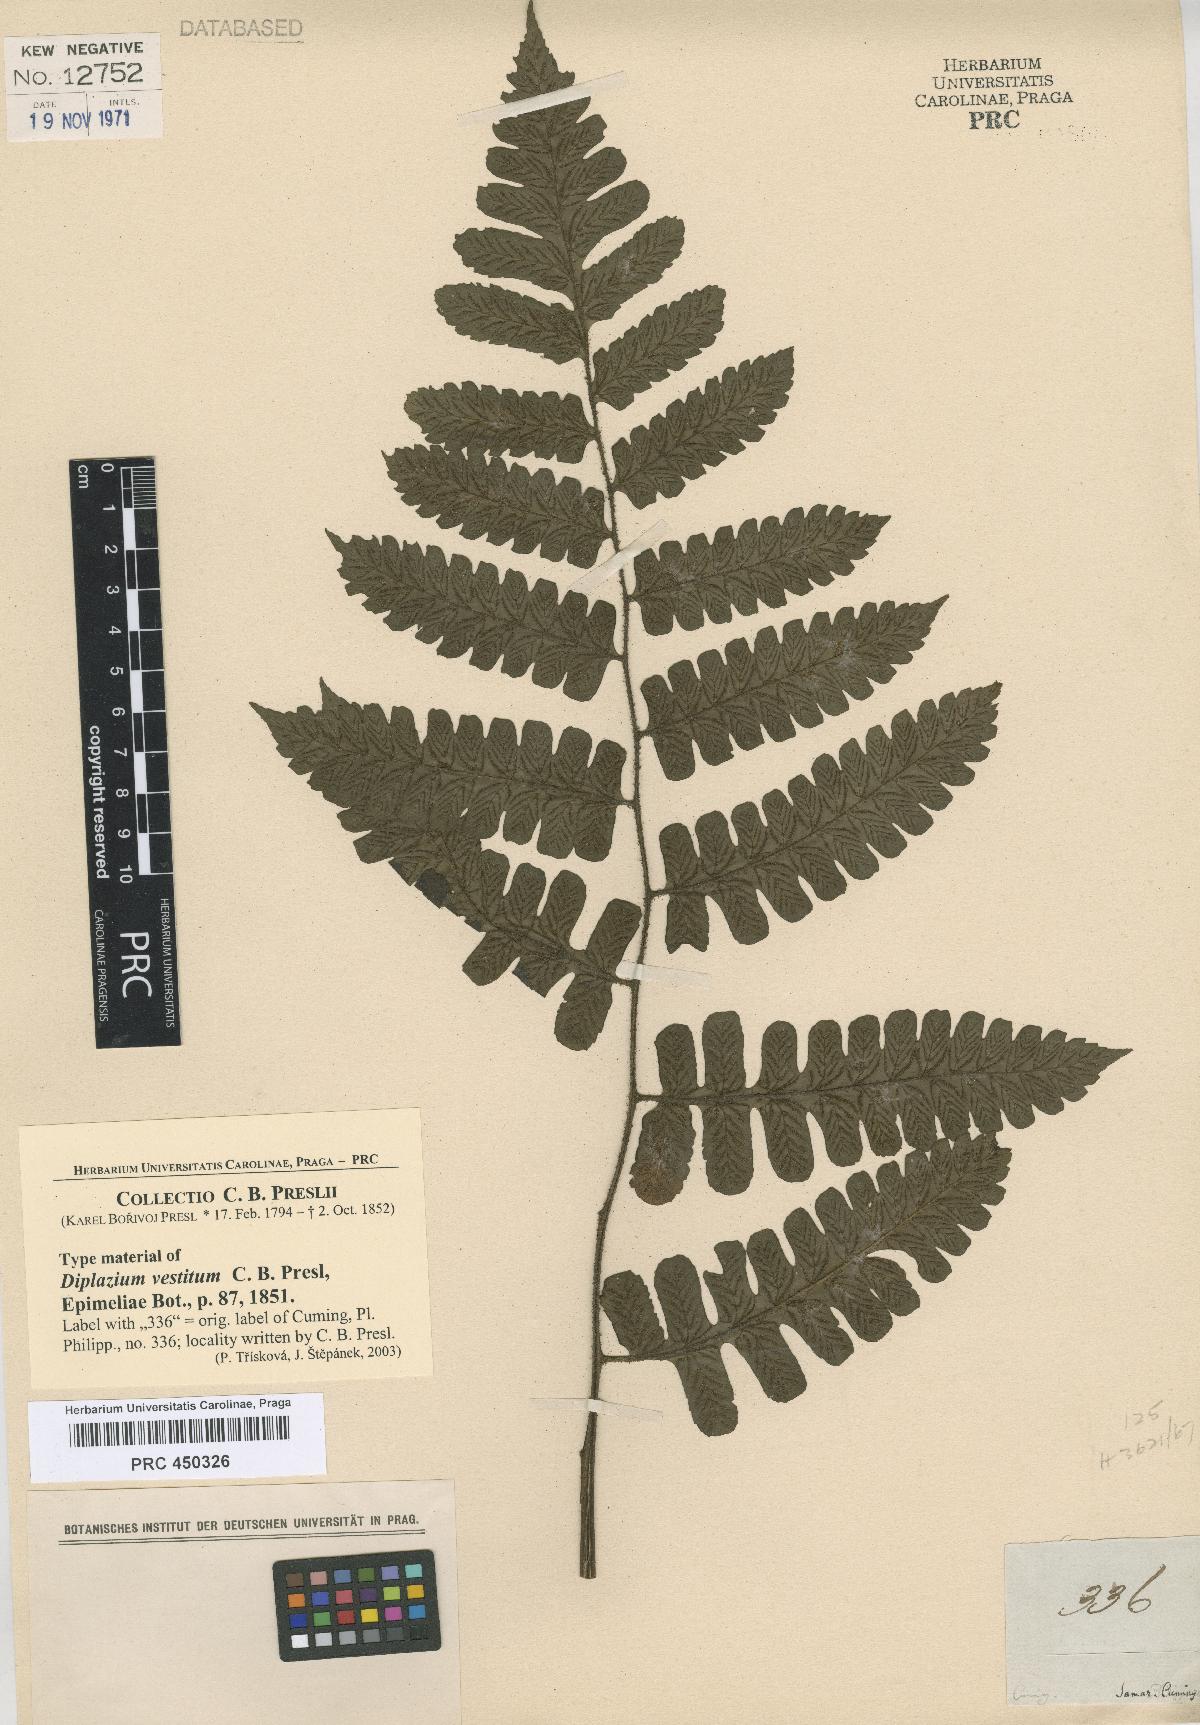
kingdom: Plantae
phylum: Tracheophyta
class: Polypodiopsida
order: Polypodiales
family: Athyriaceae
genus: Diplazium
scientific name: Diplazium vestitum
